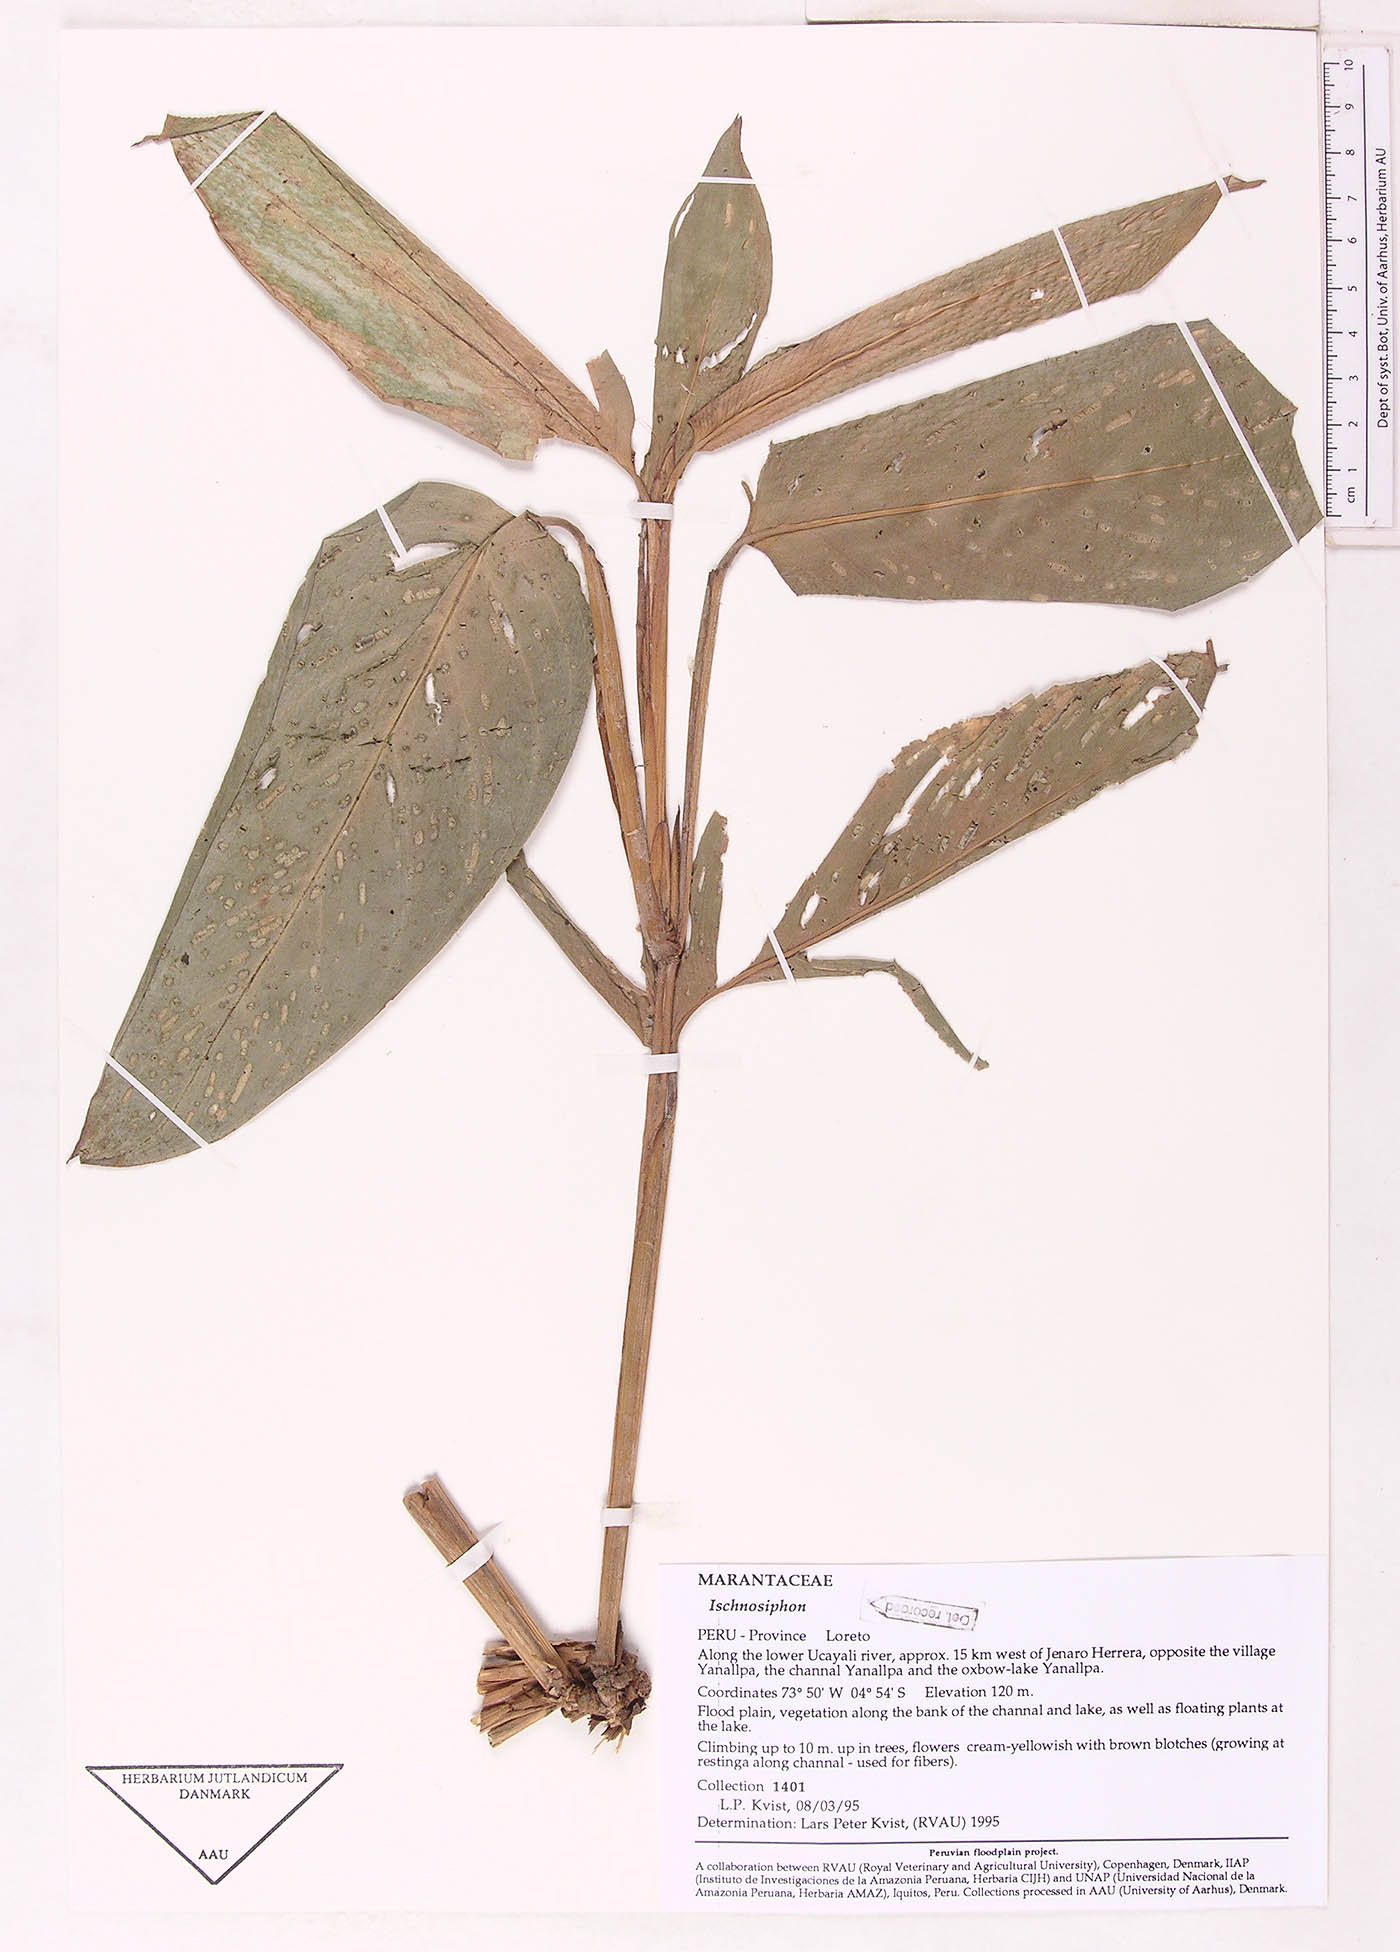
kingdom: Plantae
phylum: Tracheophyta
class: Liliopsida
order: Zingiberales
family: Marantaceae
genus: Ischnosiphon
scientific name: Ischnosiphon
